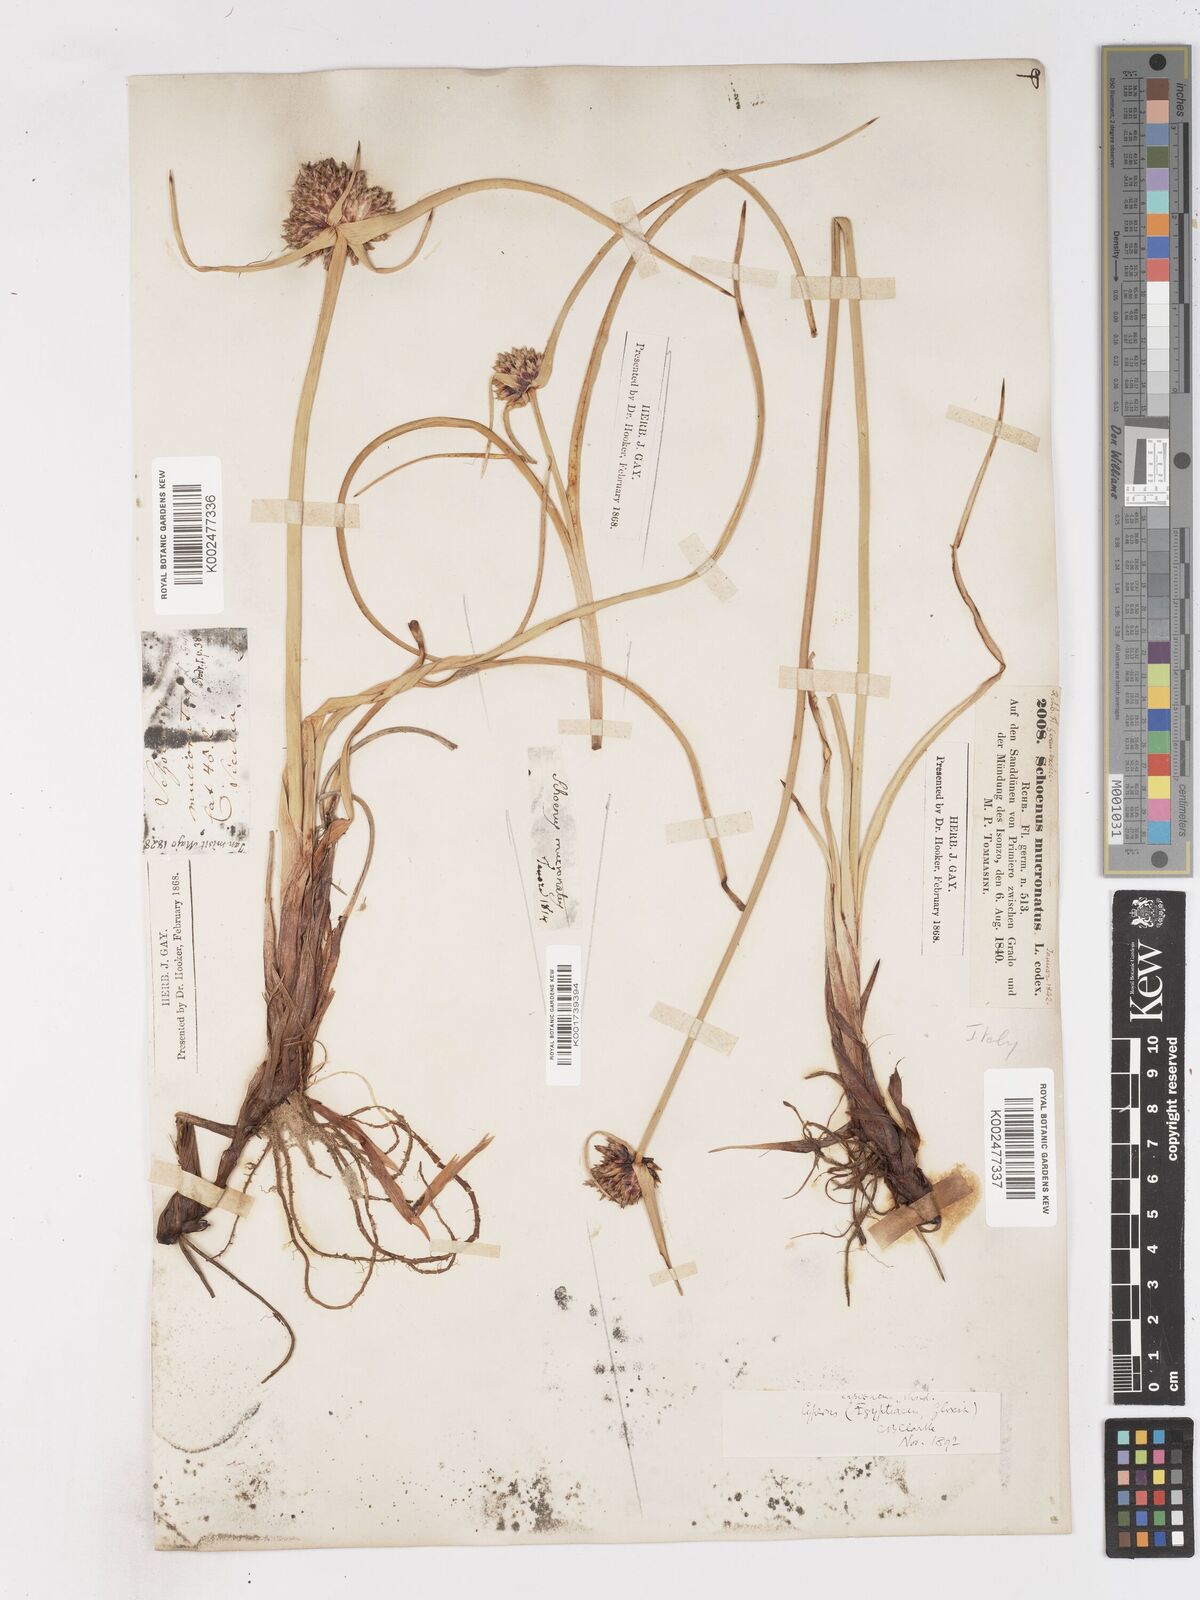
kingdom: Plantae
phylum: Tracheophyta
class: Liliopsida
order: Poales
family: Cyperaceae
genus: Cyperus
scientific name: Cyperus capitatus
